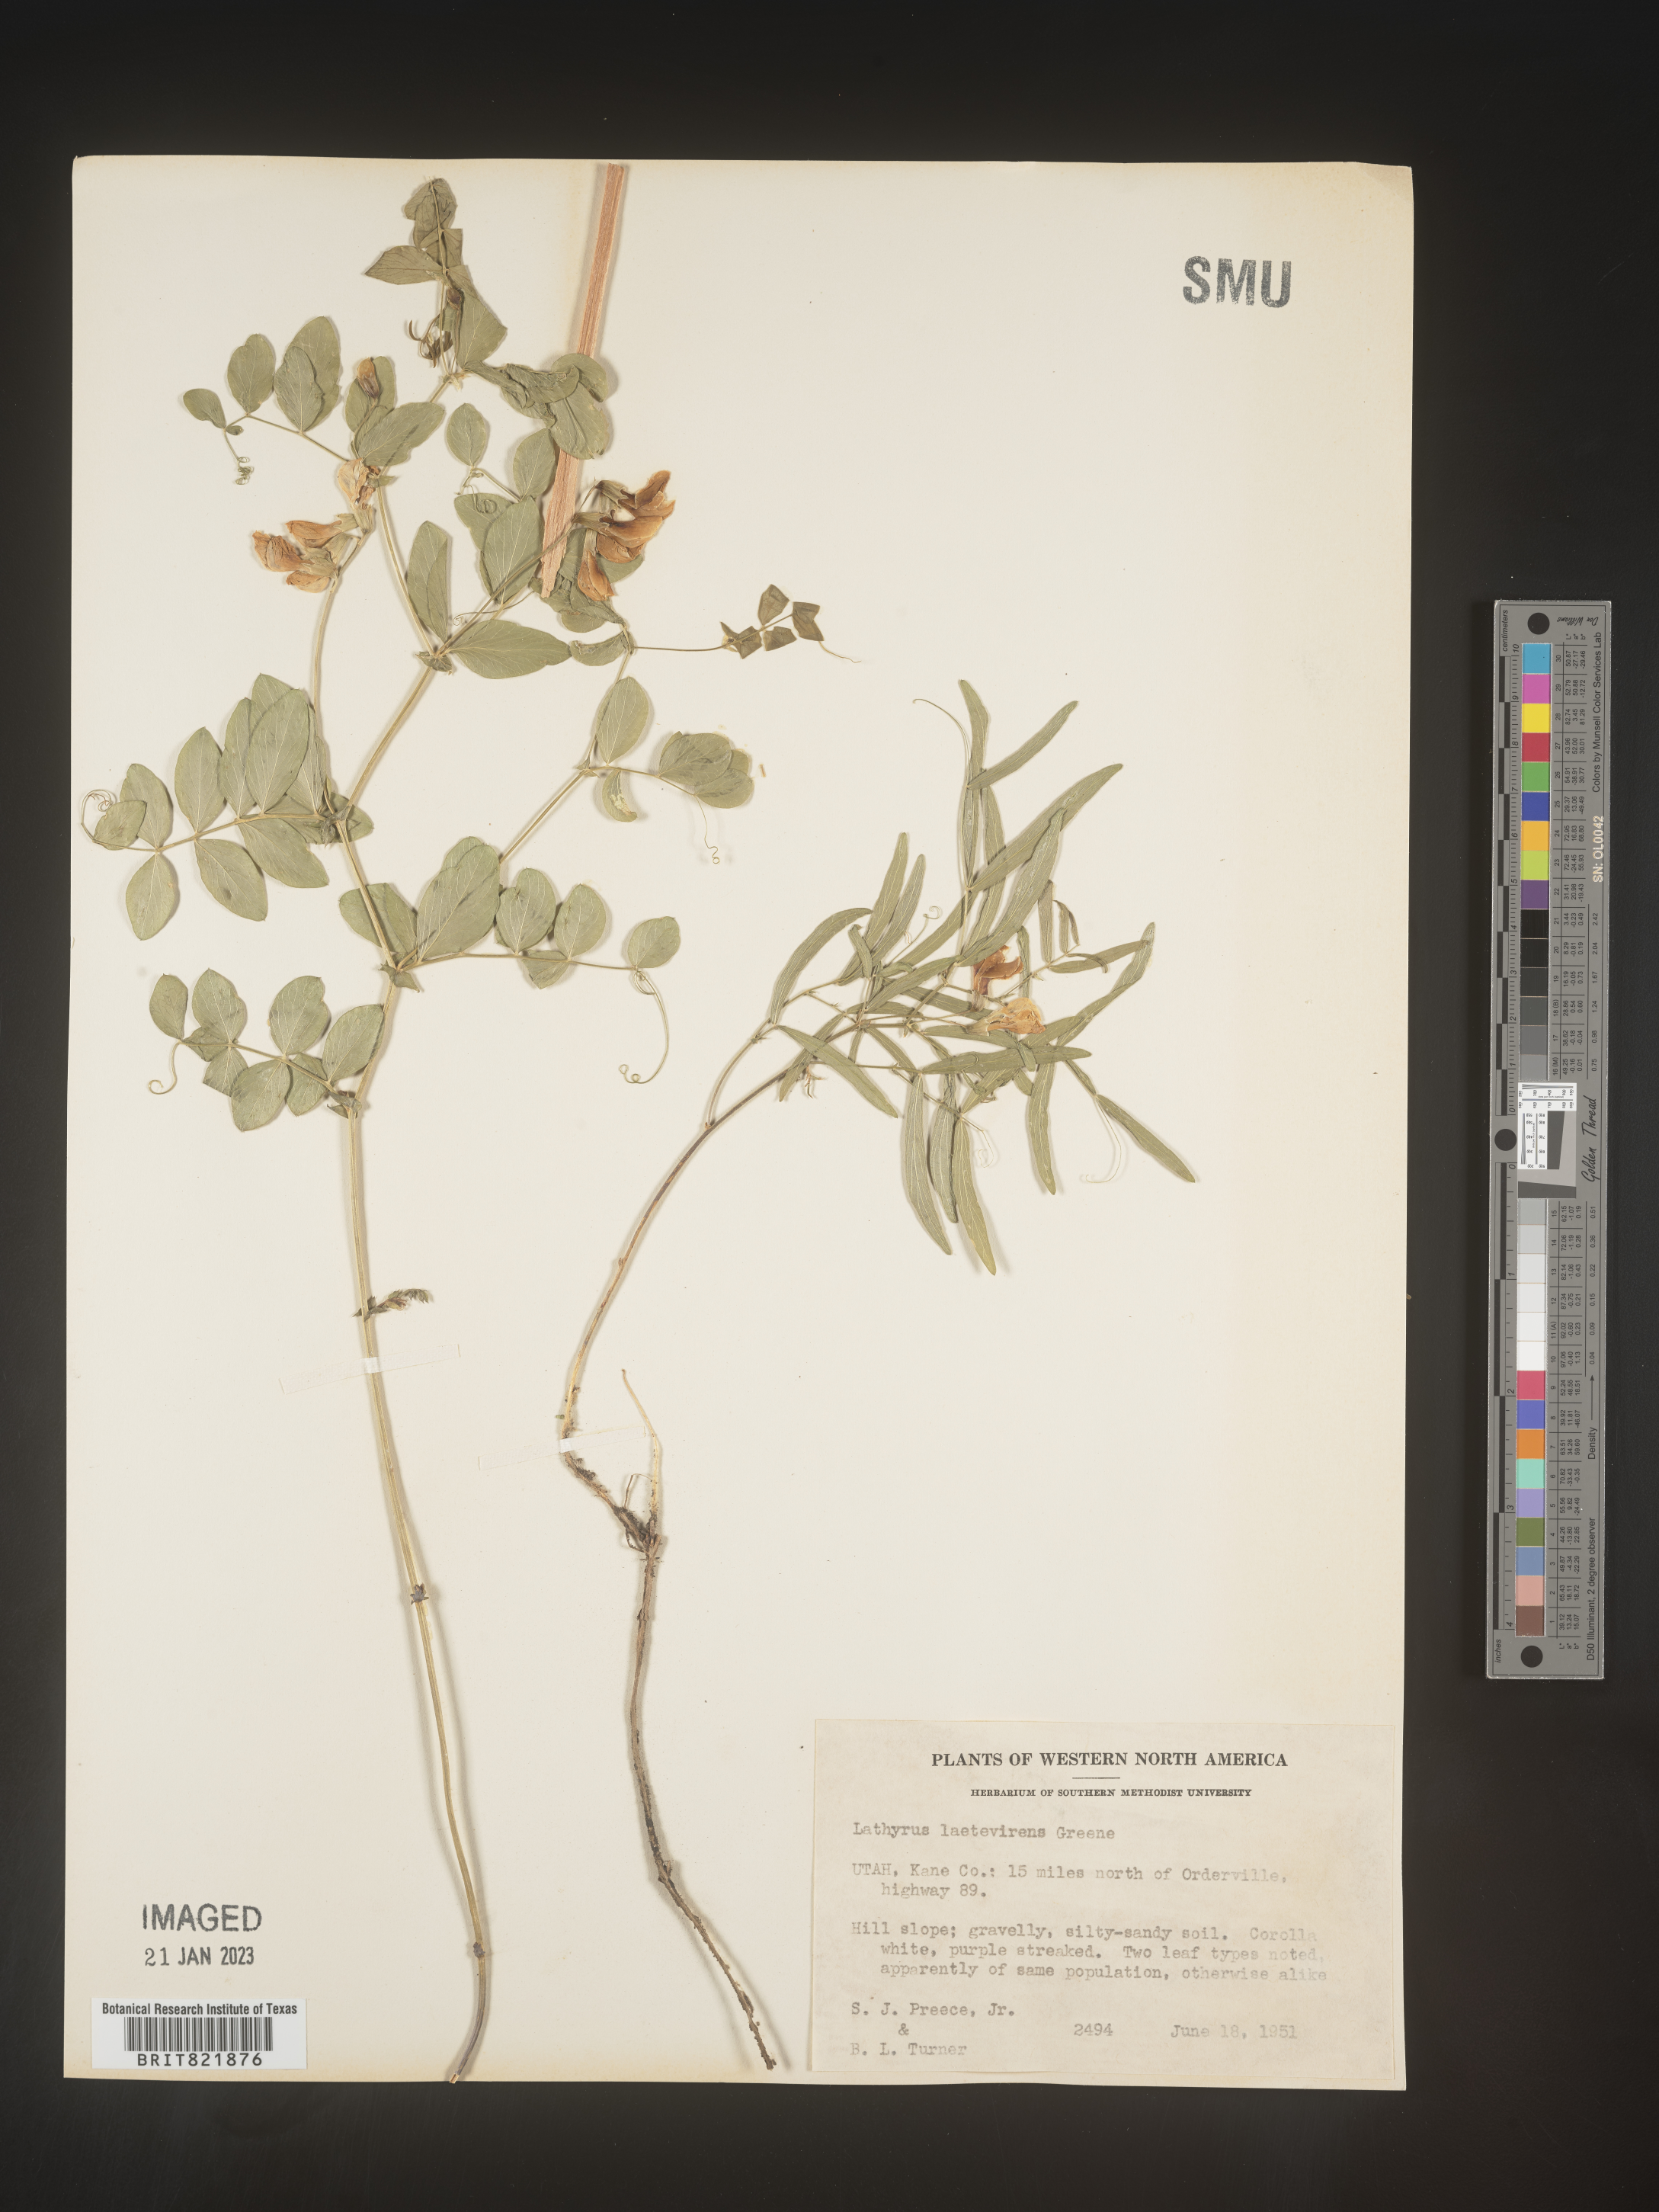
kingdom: Plantae
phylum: Tracheophyta
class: Magnoliopsida
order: Fabales
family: Fabaceae
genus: Lathyrus
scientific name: Lathyrus
